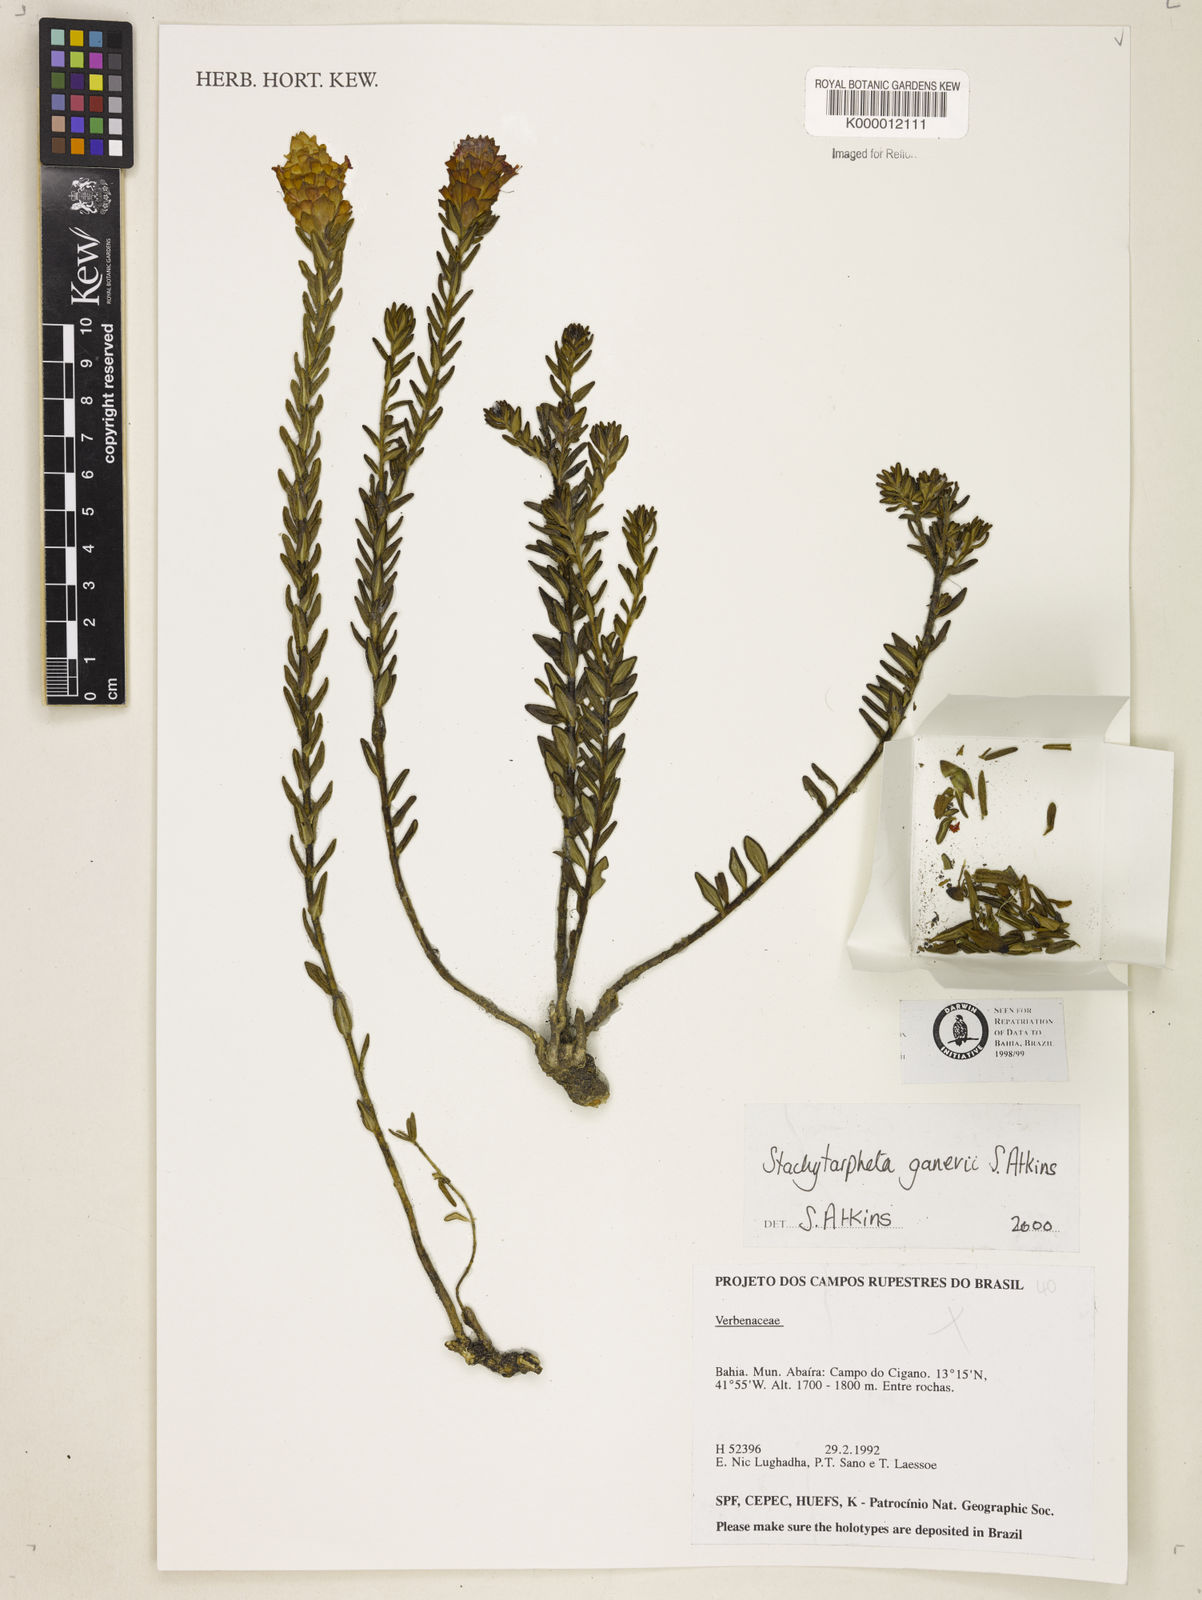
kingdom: Plantae
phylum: Tracheophyta
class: Magnoliopsida
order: Lamiales
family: Verbenaceae
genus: Stachytarpheta
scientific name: Stachytarpheta ganevii
